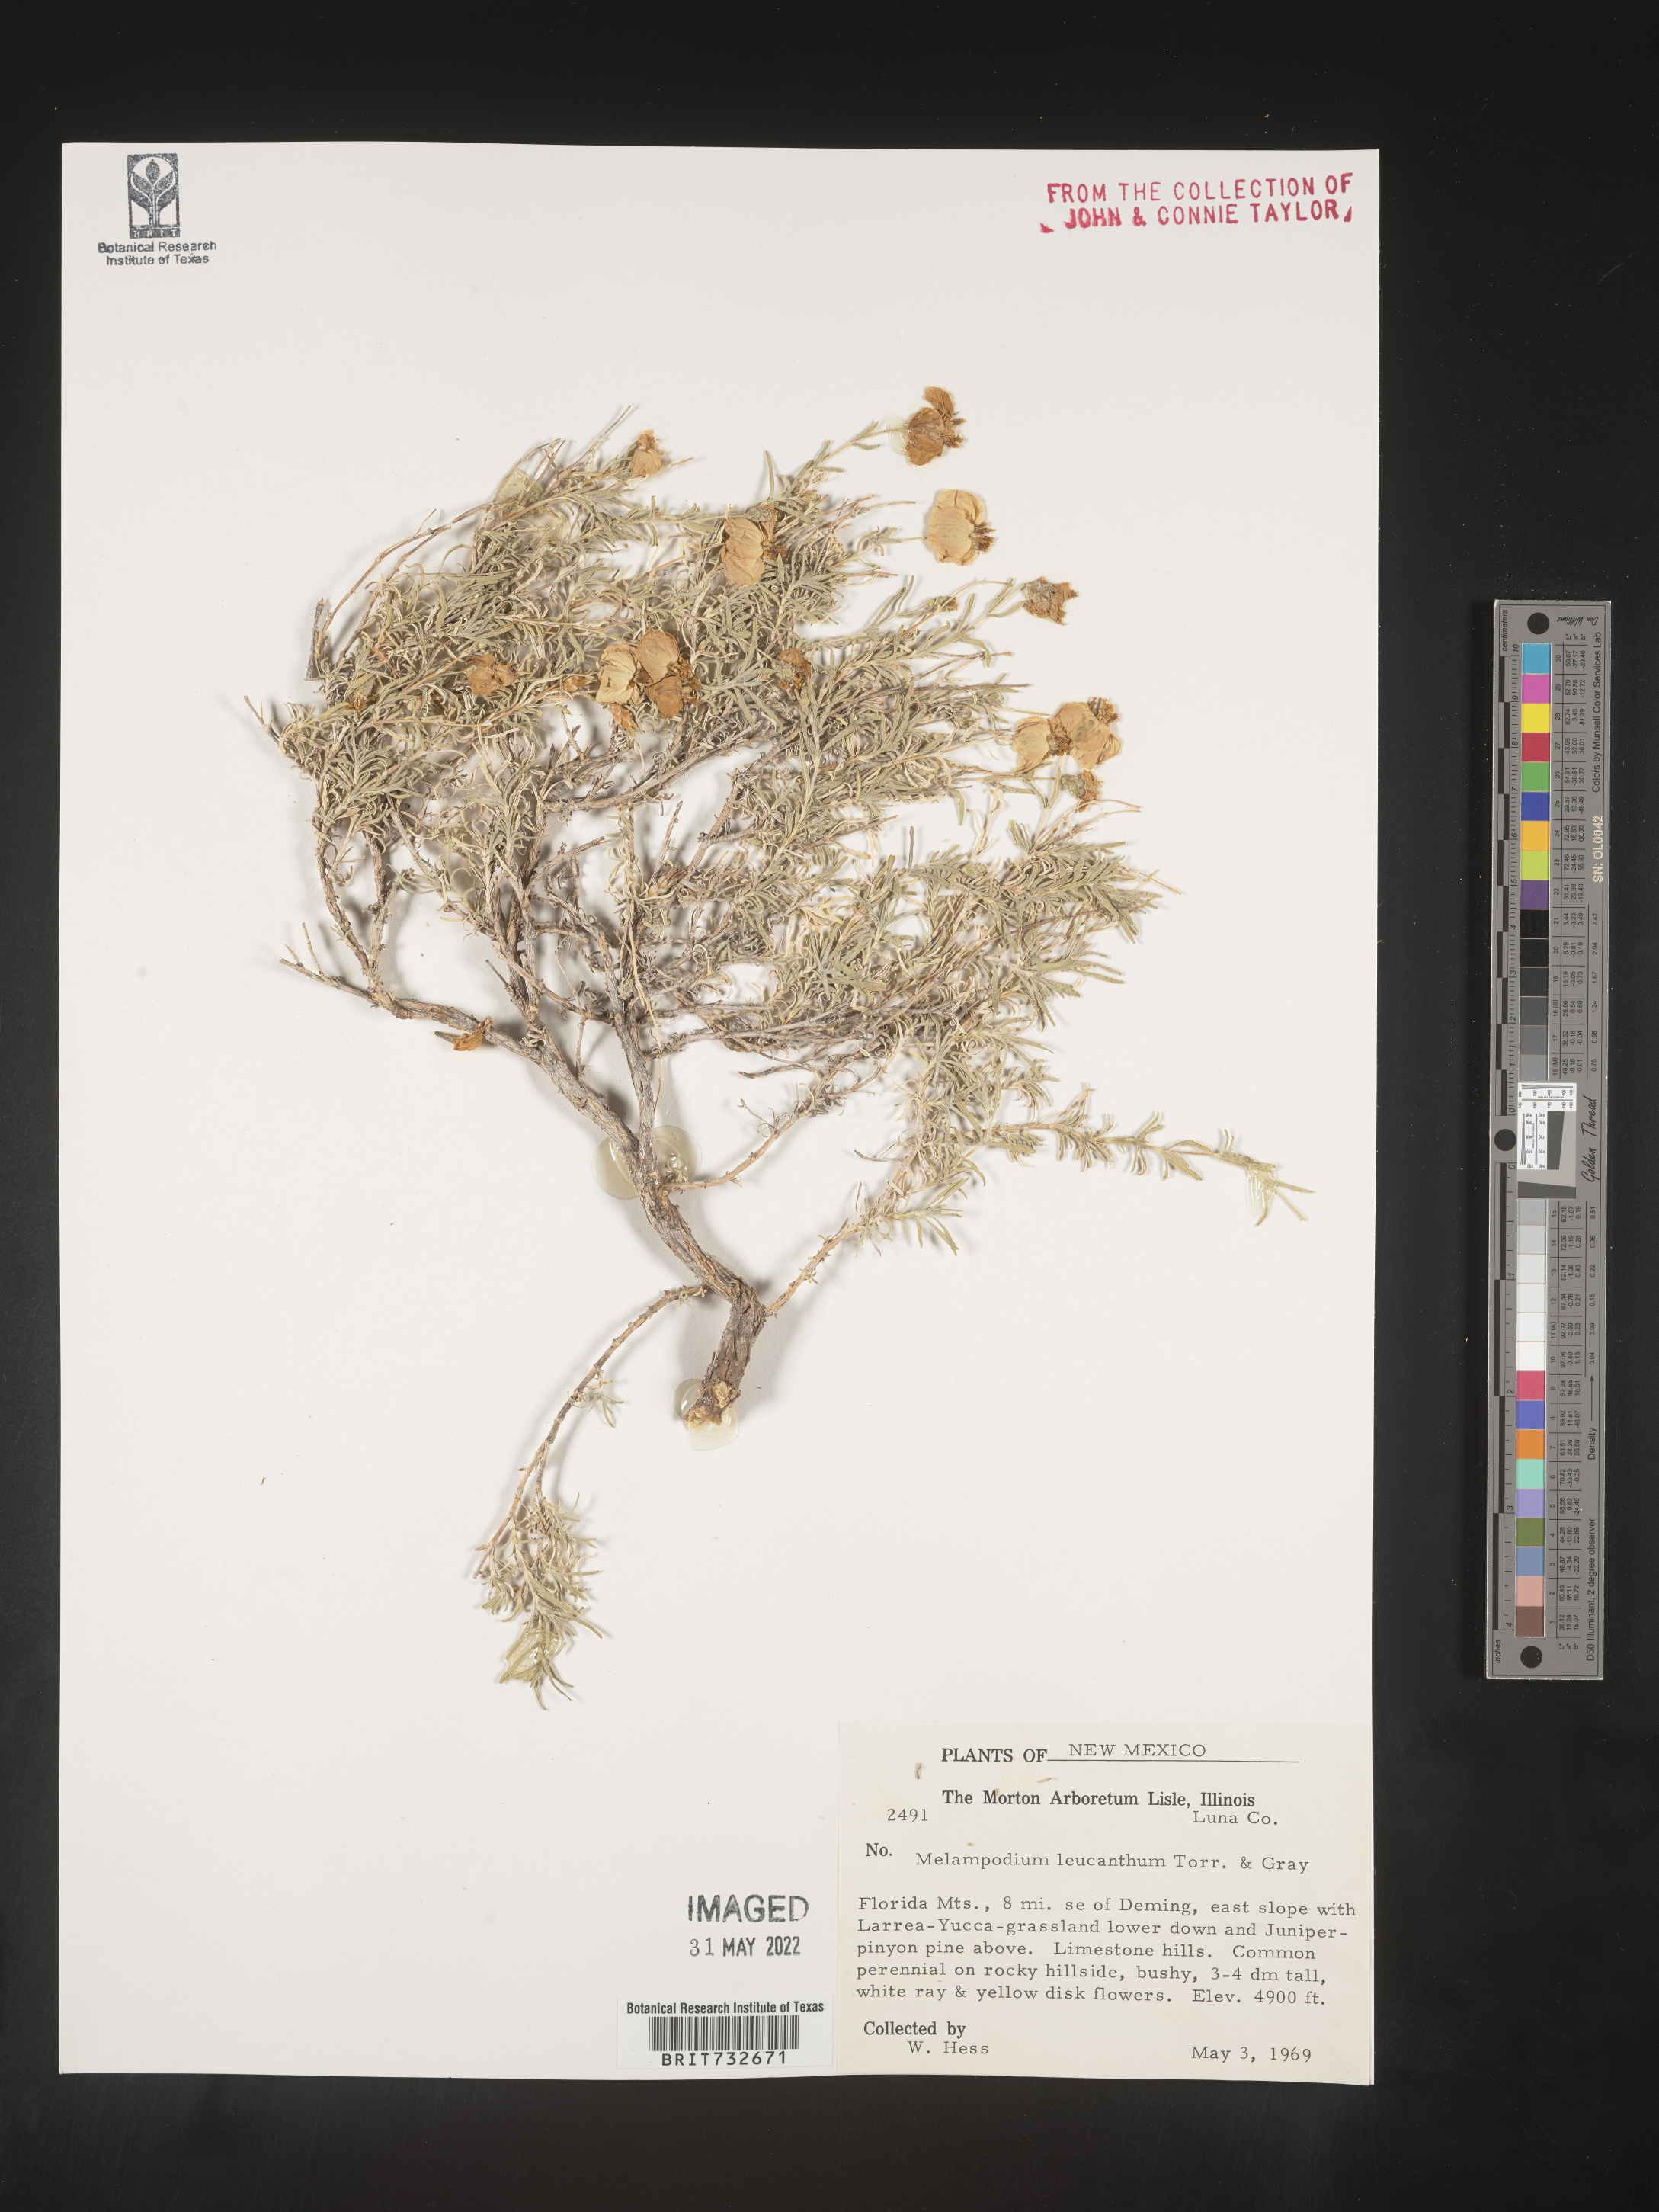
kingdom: Plantae
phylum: Tracheophyta
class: Magnoliopsida
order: Asterales
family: Asteraceae
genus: Melampodium
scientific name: Melampodium leucanthum
